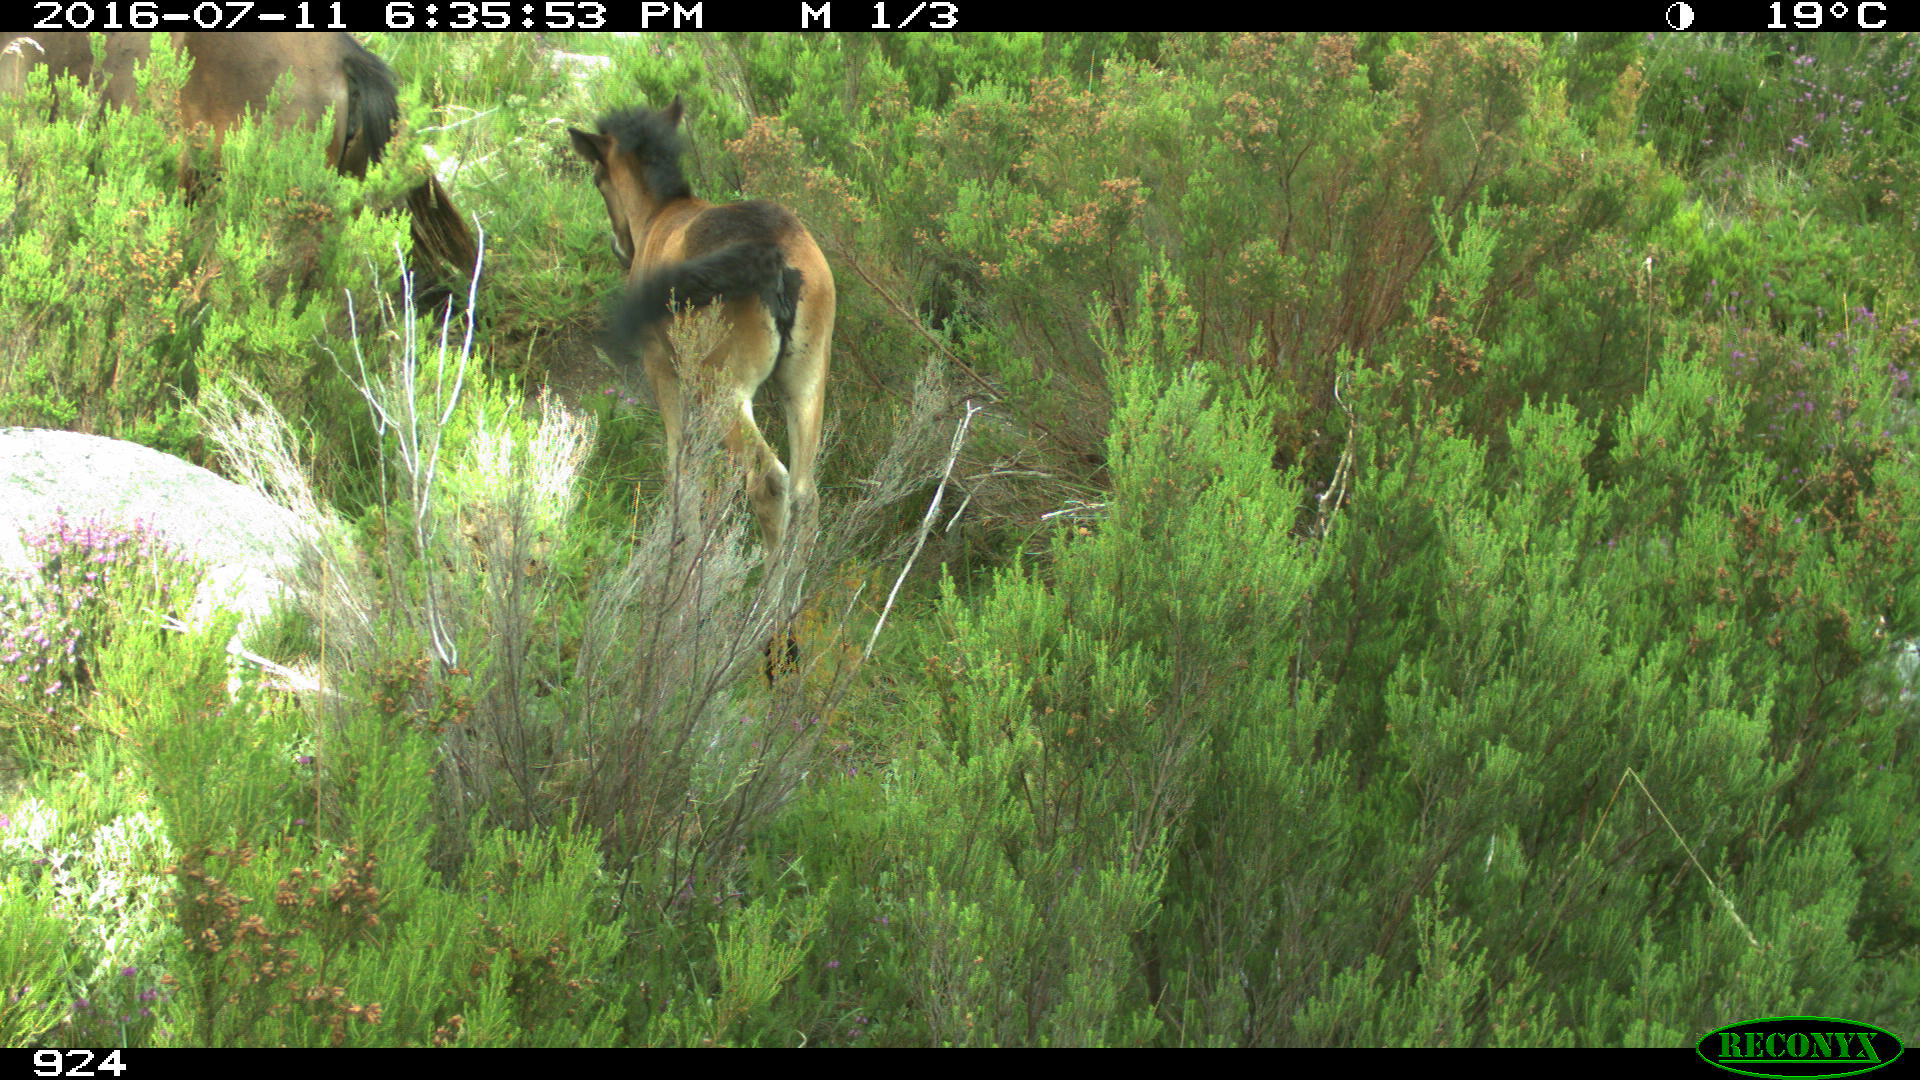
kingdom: Animalia
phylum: Chordata
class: Mammalia
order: Perissodactyla
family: Equidae
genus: Equus
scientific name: Equus caballus
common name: Horse
